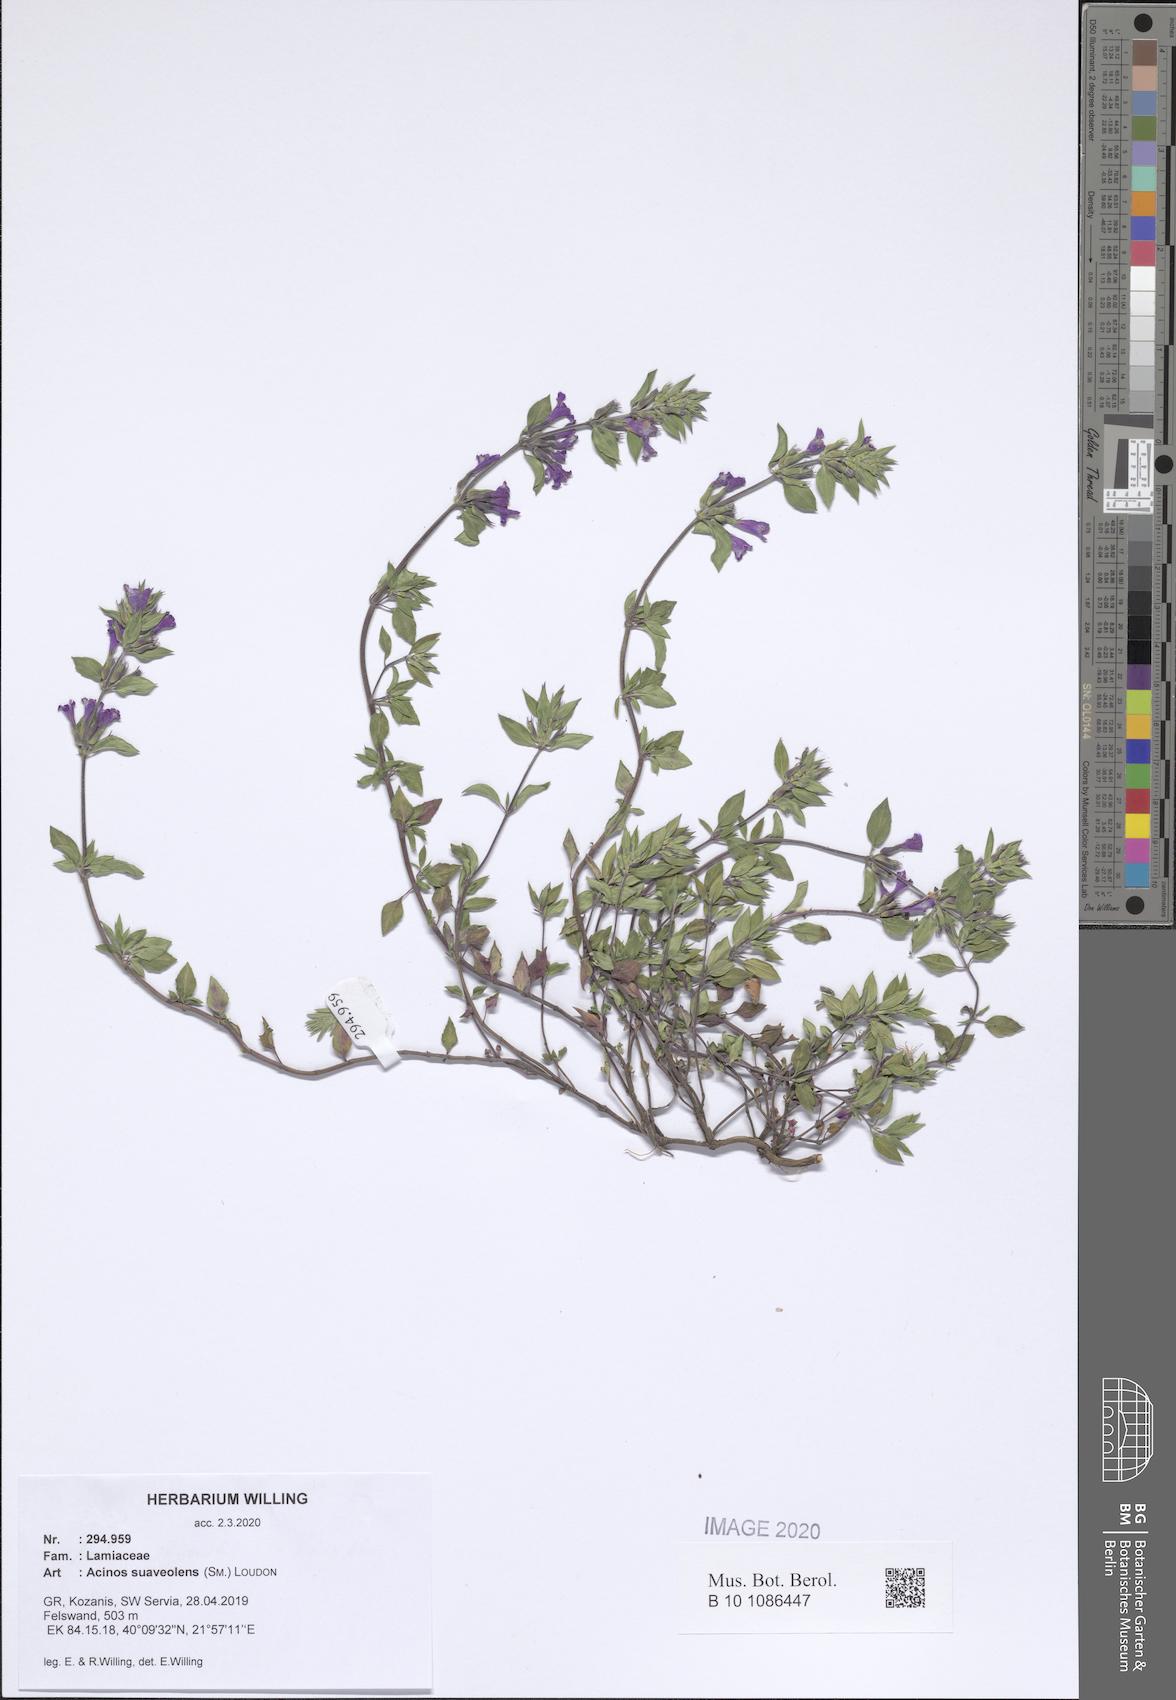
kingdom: Plantae
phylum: Tracheophyta
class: Magnoliopsida
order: Lamiales
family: Lamiaceae
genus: Clinopodium
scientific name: Clinopodium suaveolens
